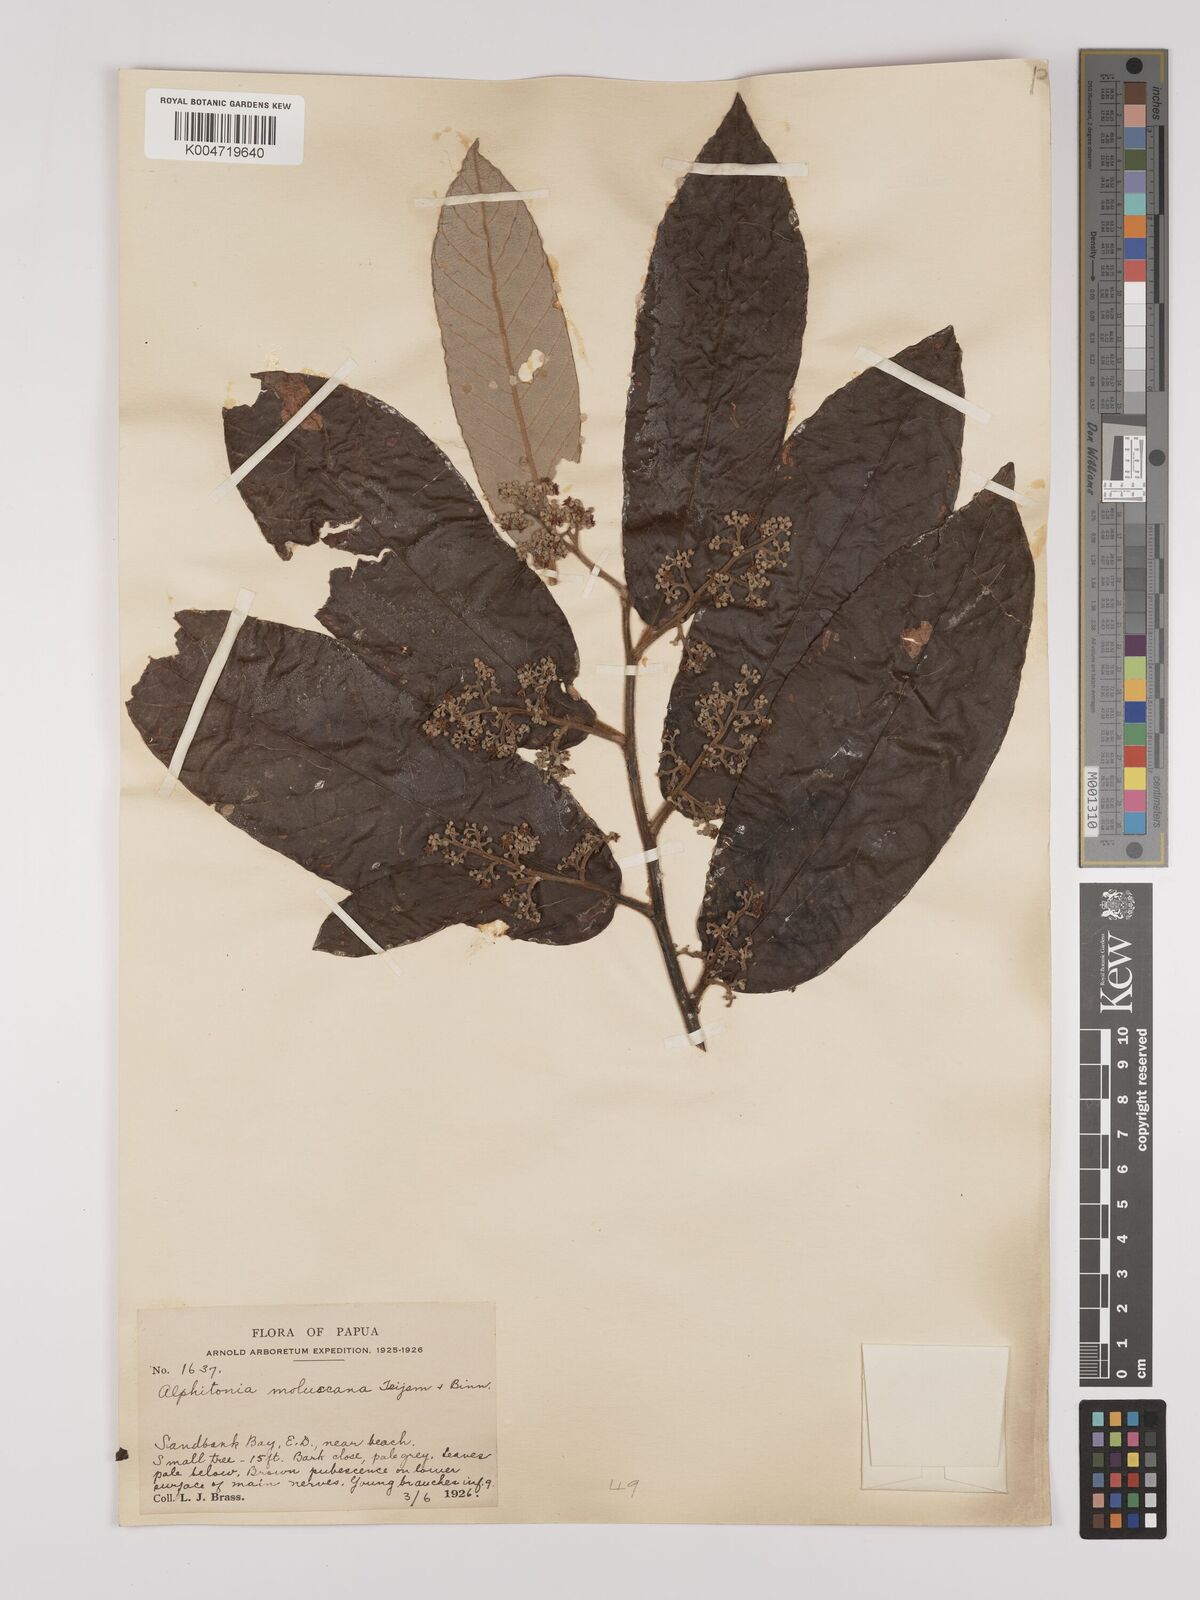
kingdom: Plantae
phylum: Tracheophyta
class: Magnoliopsida
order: Rosales
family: Rhamnaceae
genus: Alphitonia
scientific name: Alphitonia incana
